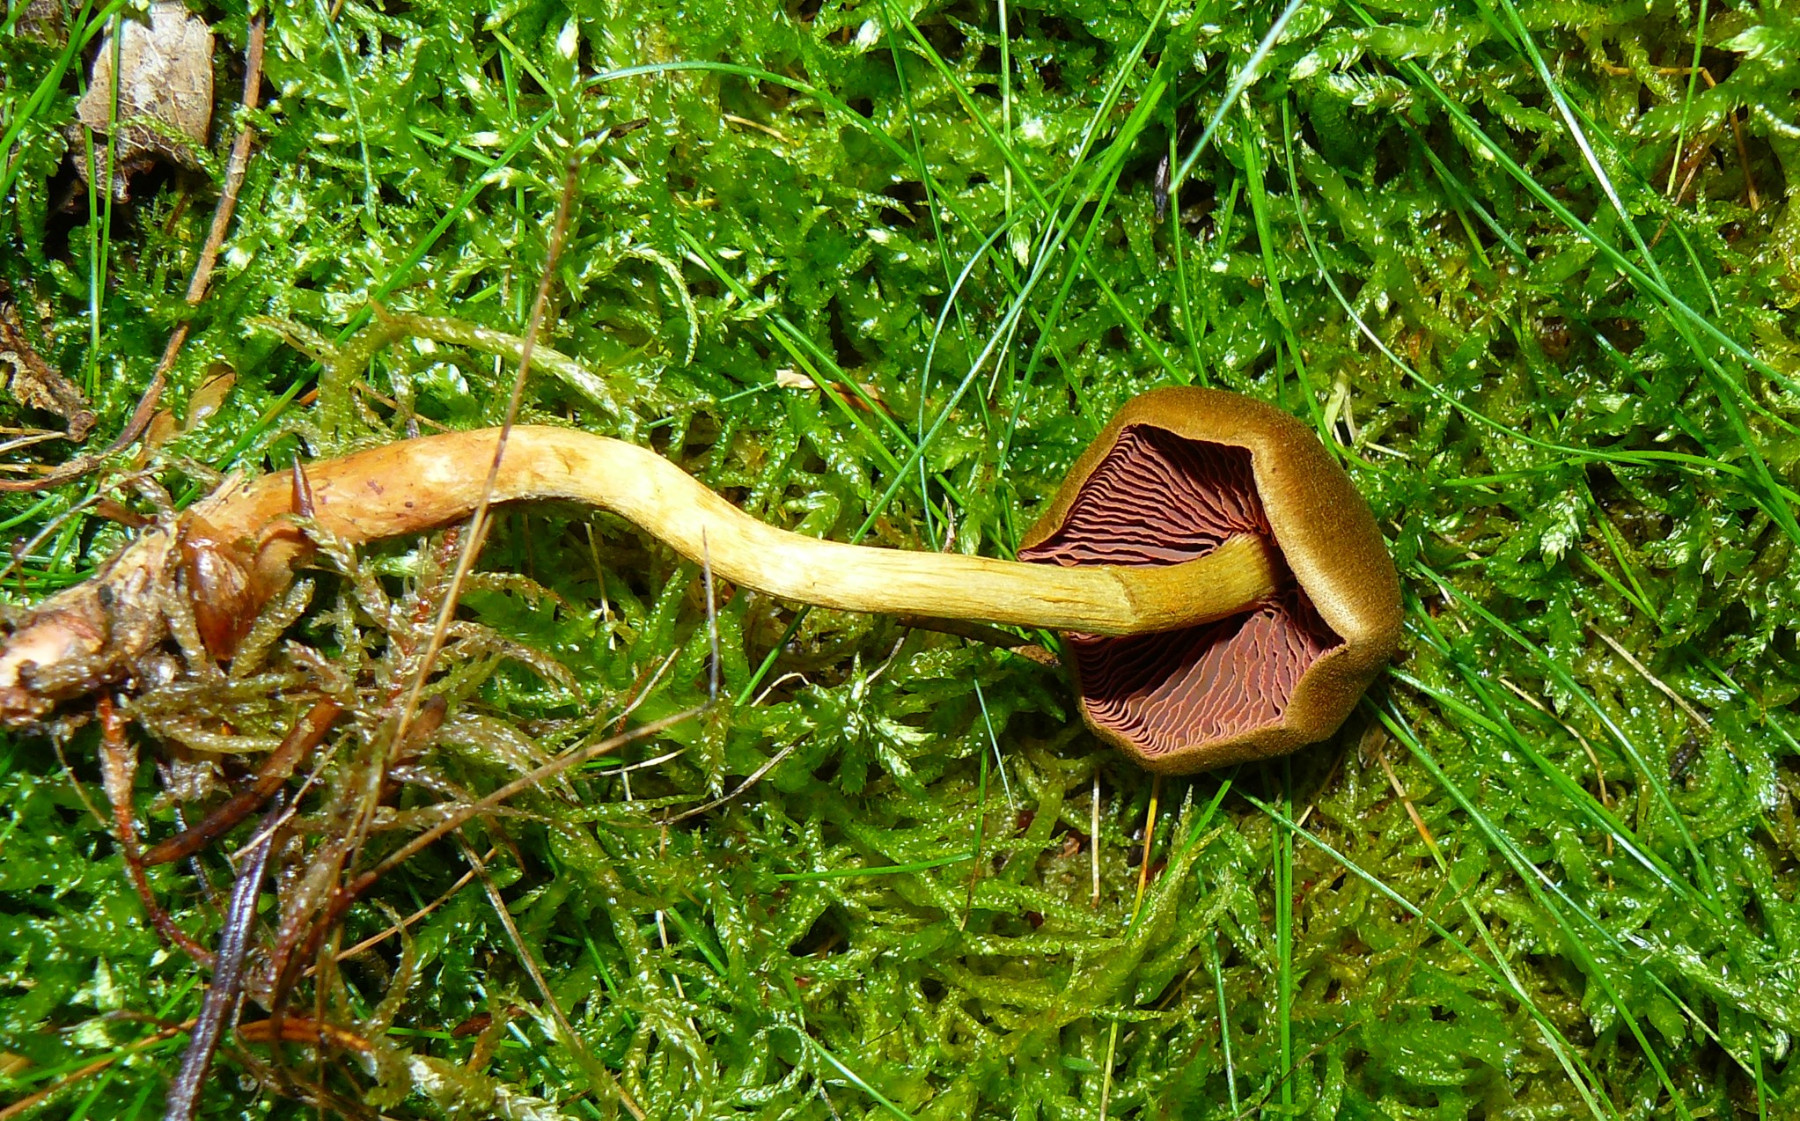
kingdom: Fungi
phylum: Basidiomycota
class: Agaricomycetes
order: Agaricales
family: Cortinariaceae
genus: Cortinarius
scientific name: Cortinarius
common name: cinnoberbladet slørhat
